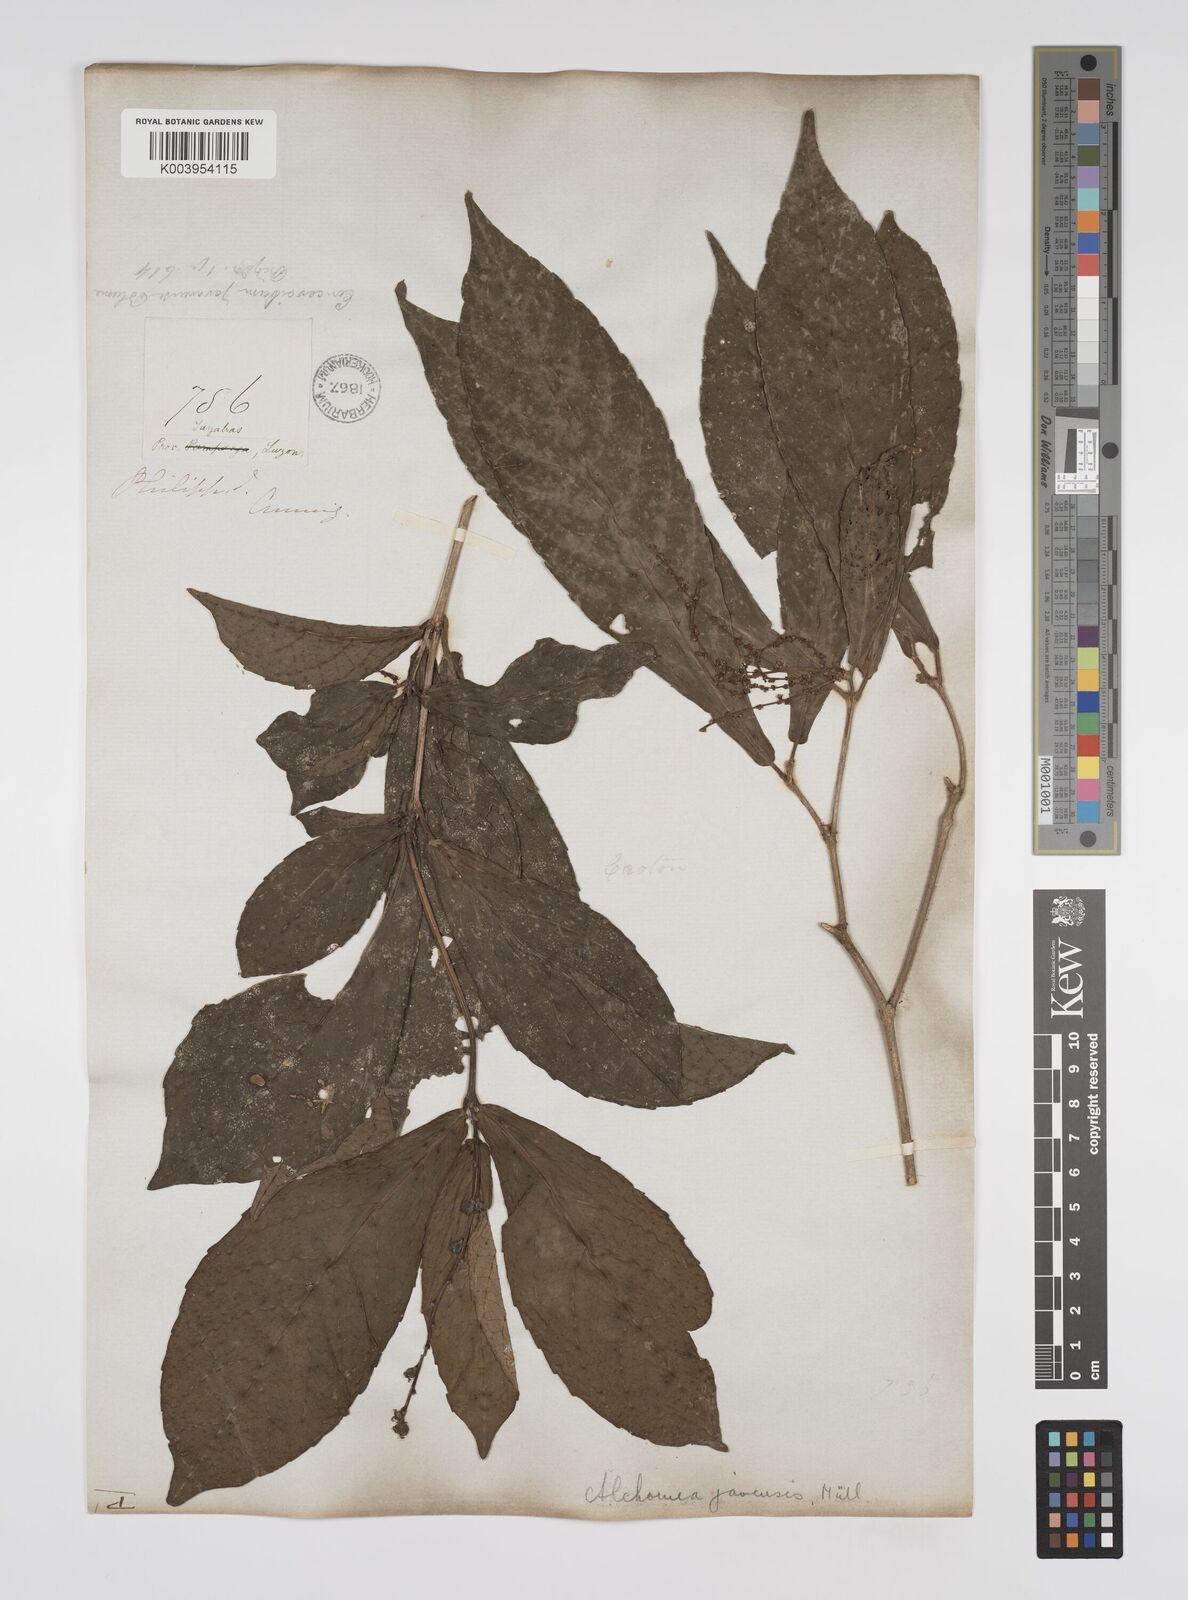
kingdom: Plantae
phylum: Tracheophyta
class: Magnoliopsida
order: Malpighiales
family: Euphorbiaceae
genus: Alchornea
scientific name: Alchornea rugosa
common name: Alchorntree
